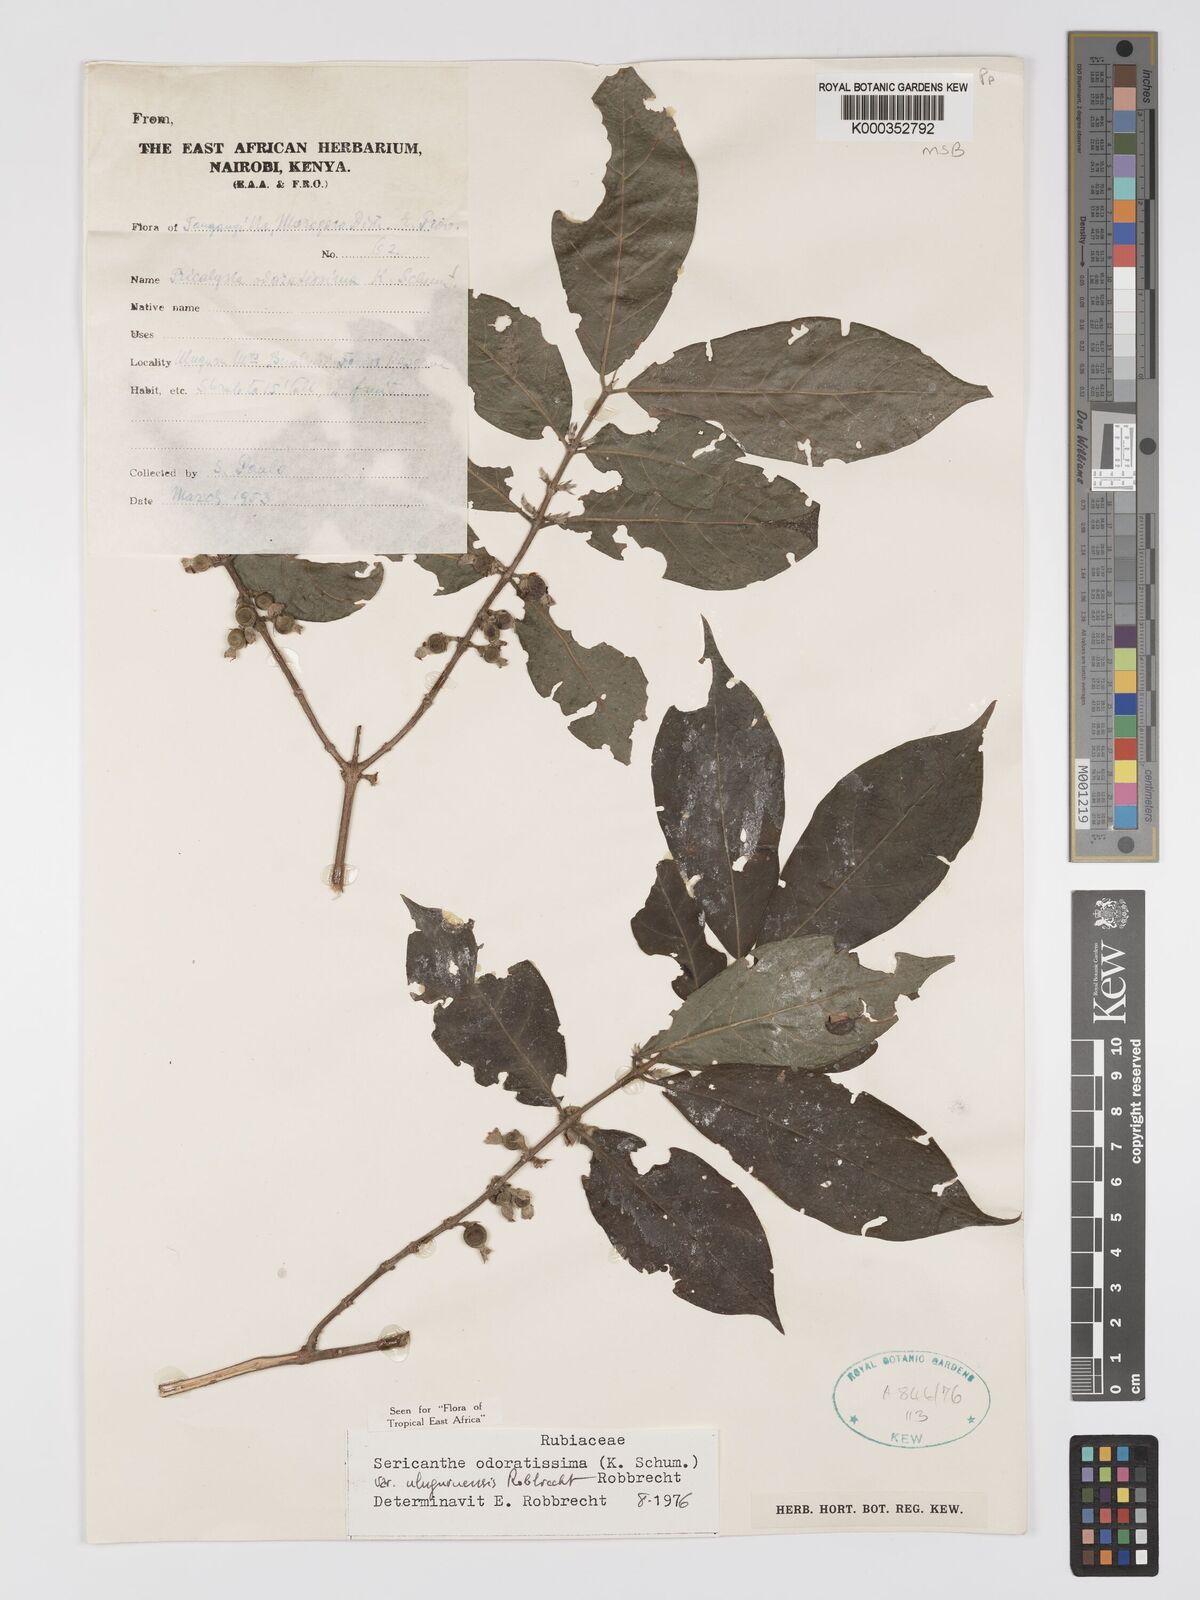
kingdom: Plantae
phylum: Tracheophyta
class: Magnoliopsida
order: Gentianales
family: Rubiaceae
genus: Sericanthe
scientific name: Sericanthe odoratissima
